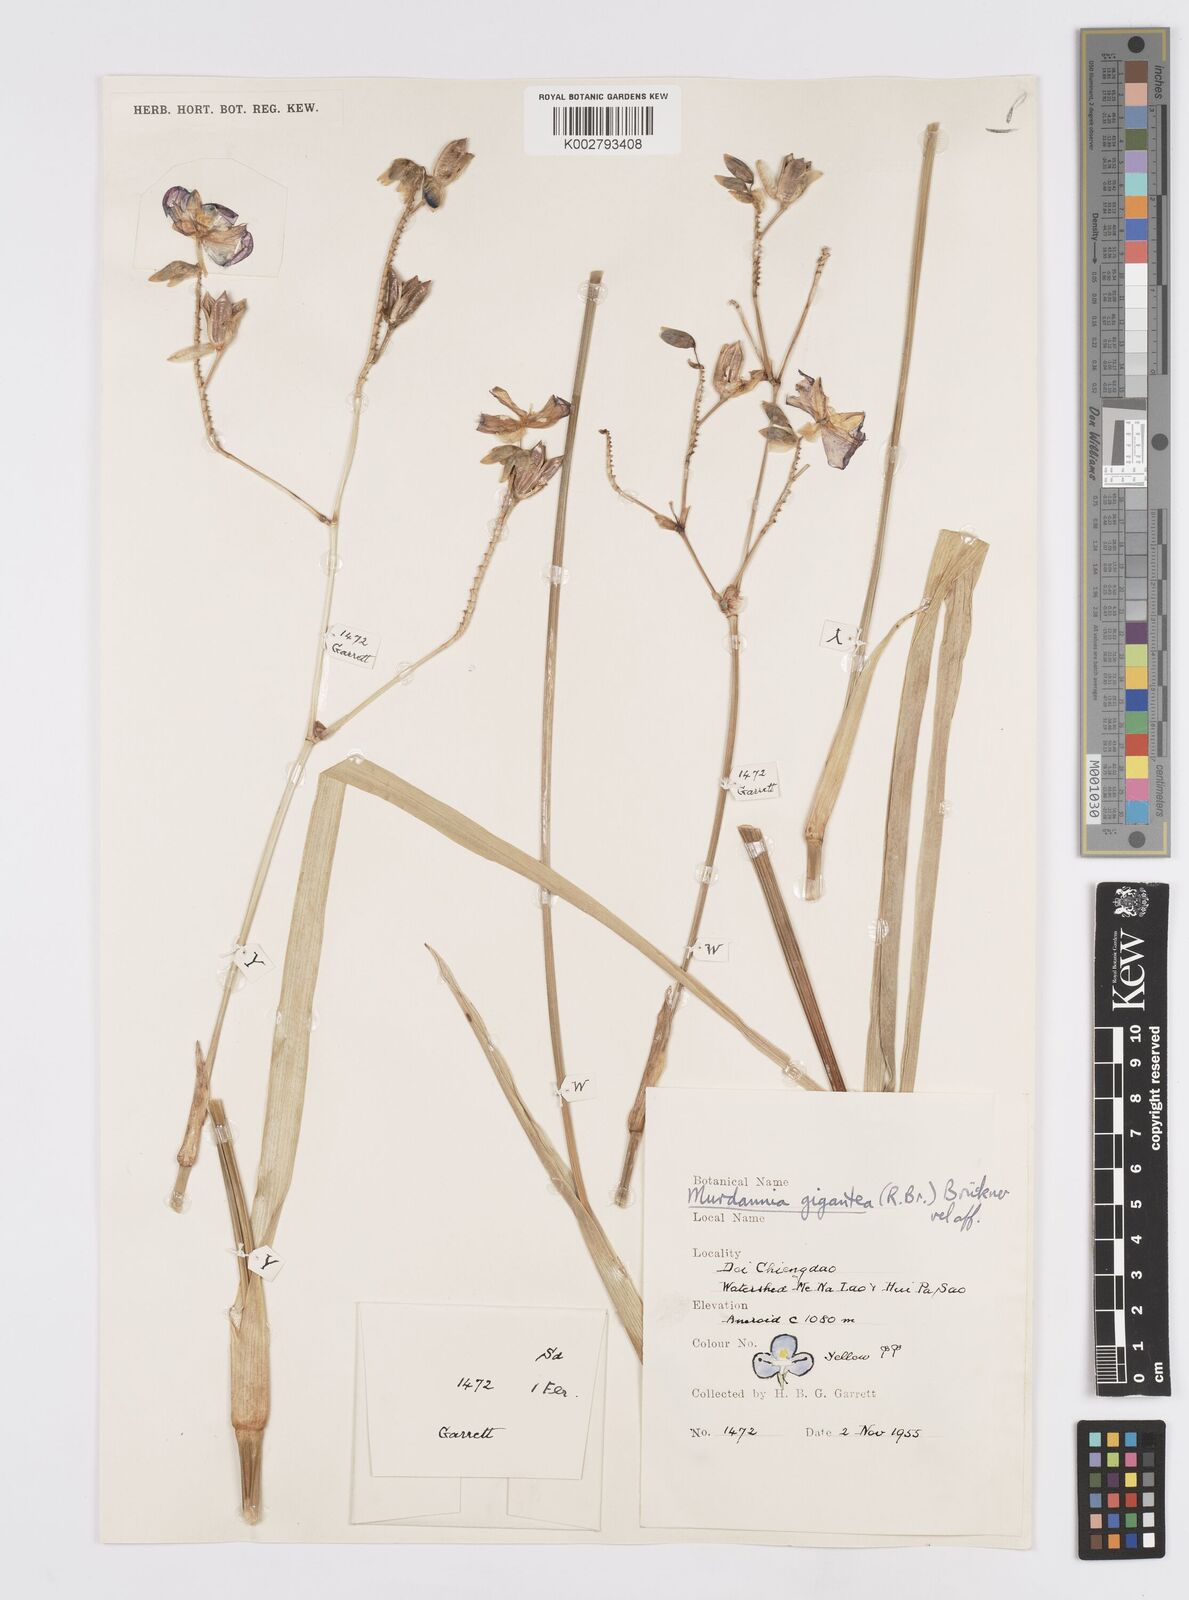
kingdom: Plantae
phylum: Tracheophyta
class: Liliopsida
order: Commelinales
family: Commelinaceae
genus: Murdannia
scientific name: Murdannia gigantea
